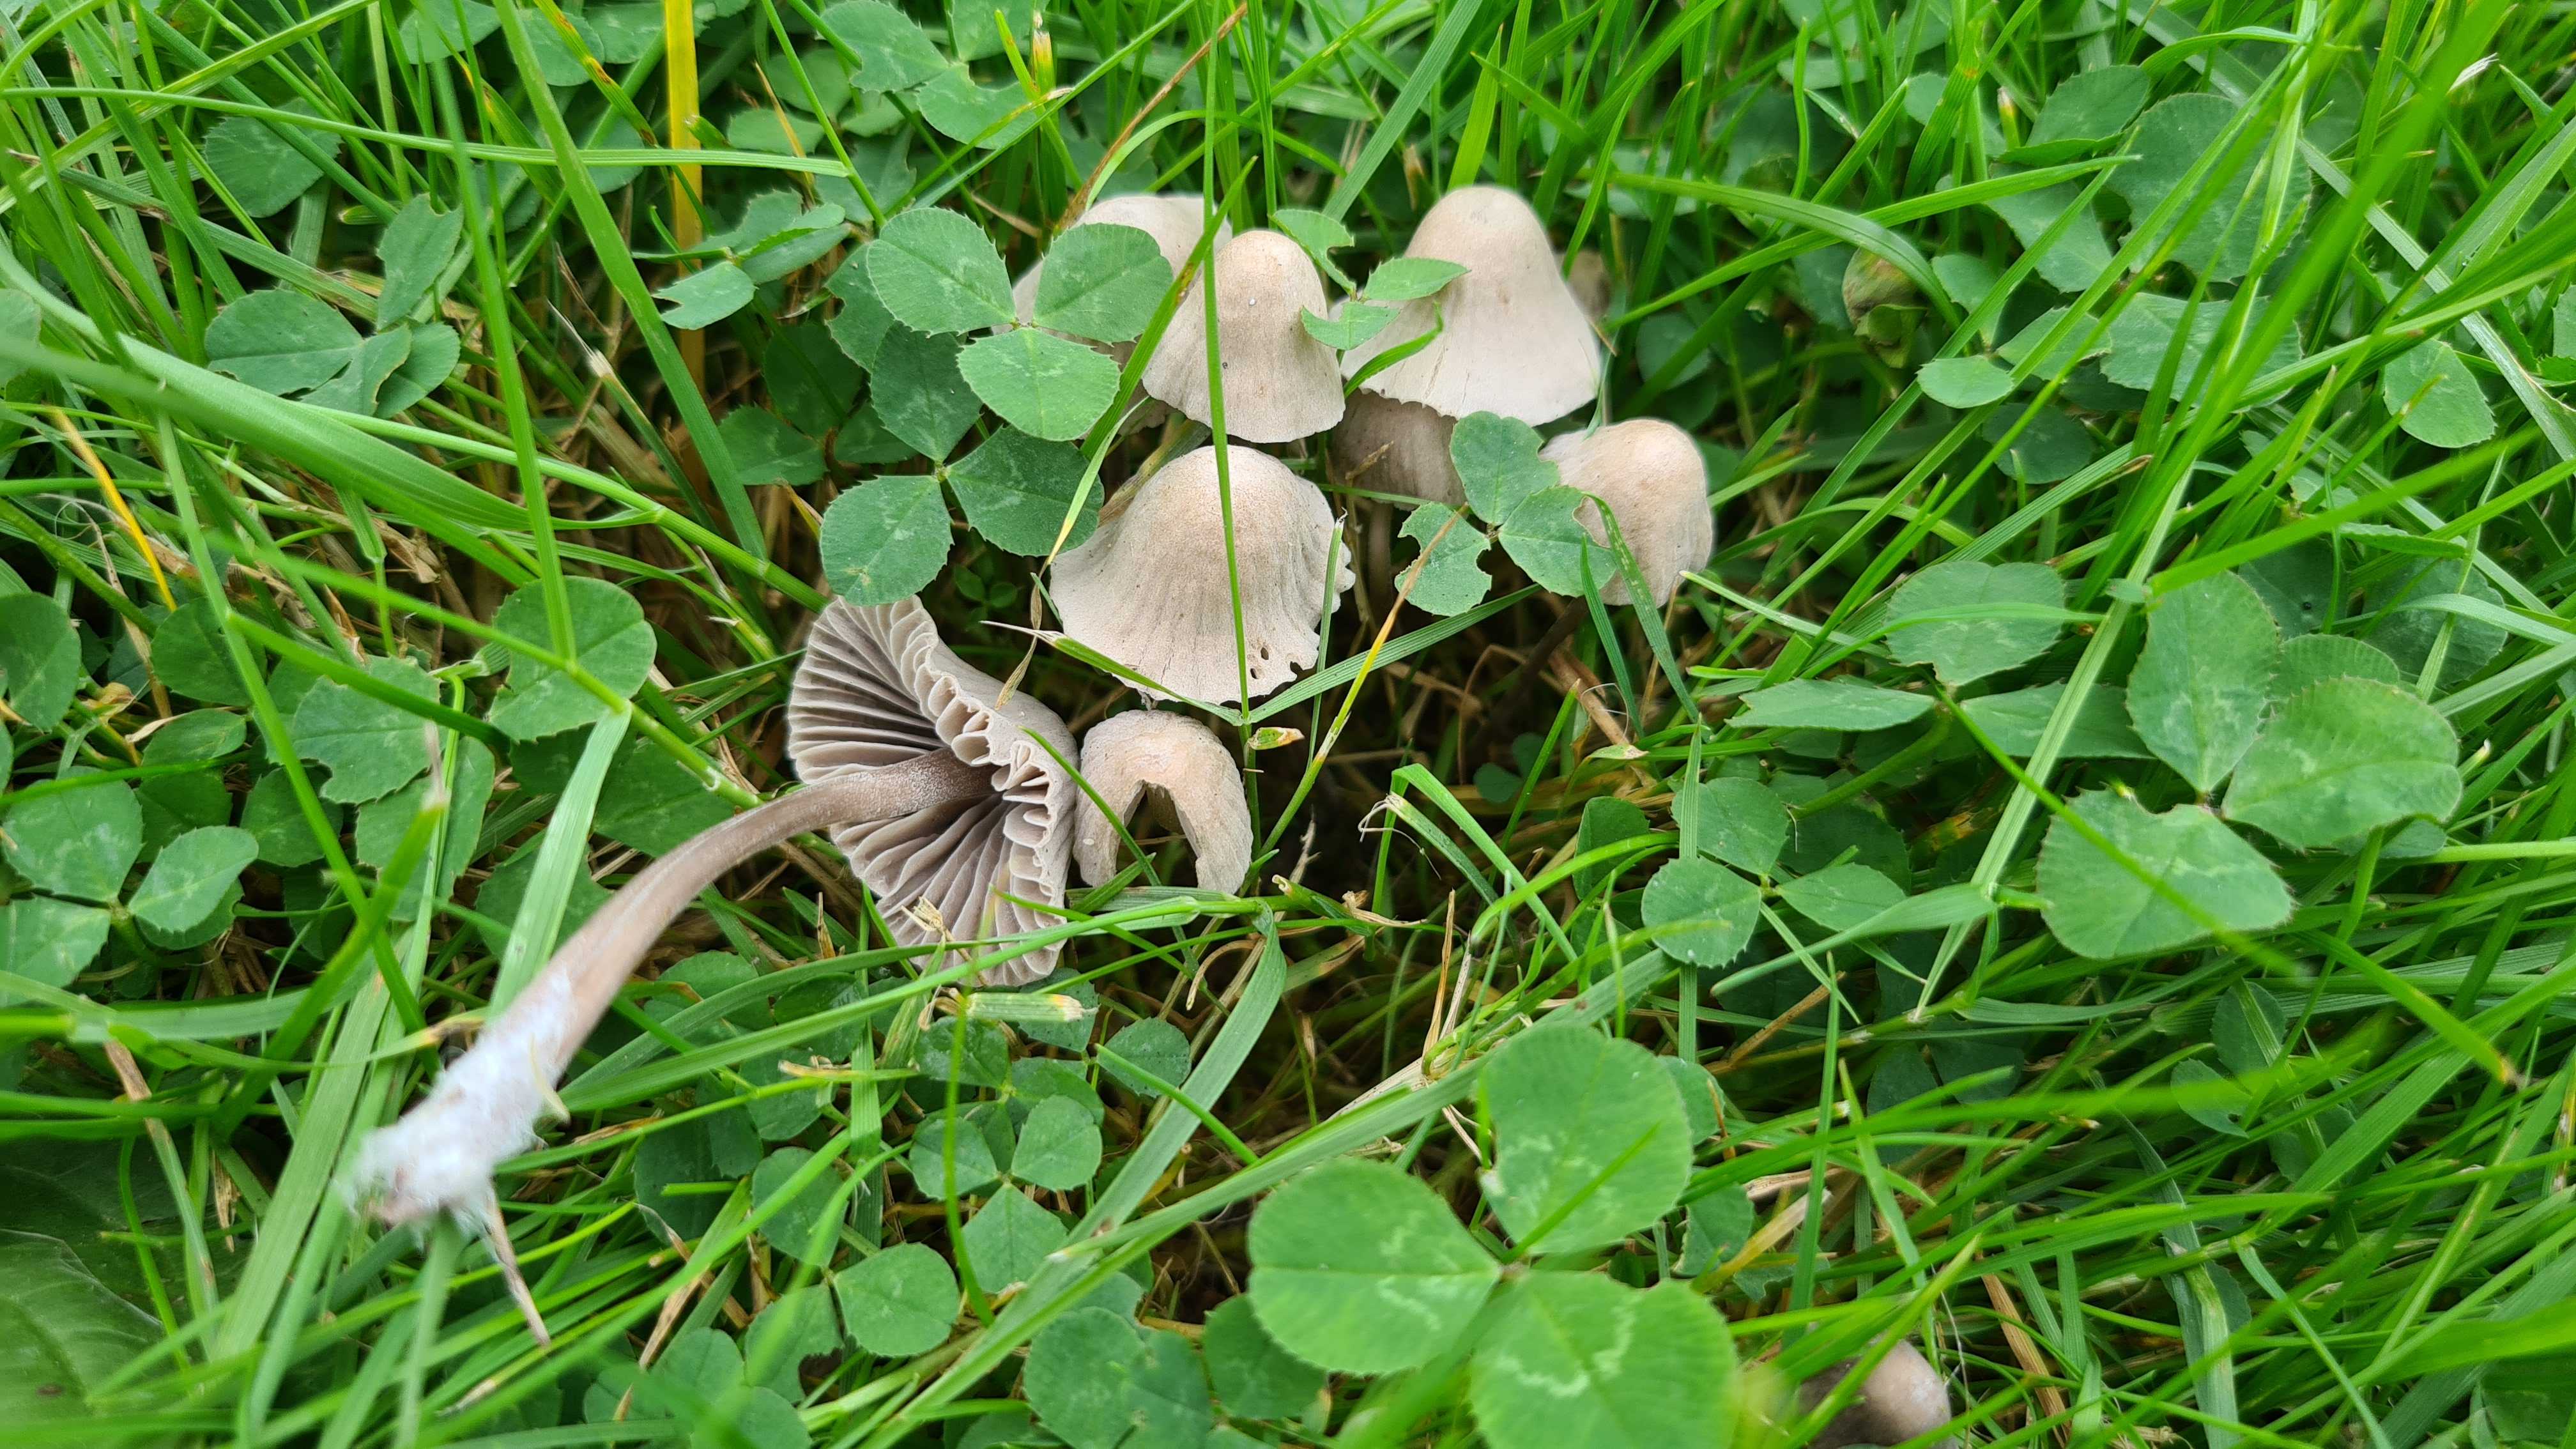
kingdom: Fungi
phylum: Basidiomycota
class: Agaricomycetes
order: Agaricales
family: Mycenaceae
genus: Mycena
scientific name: Mycena
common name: huesvamp
